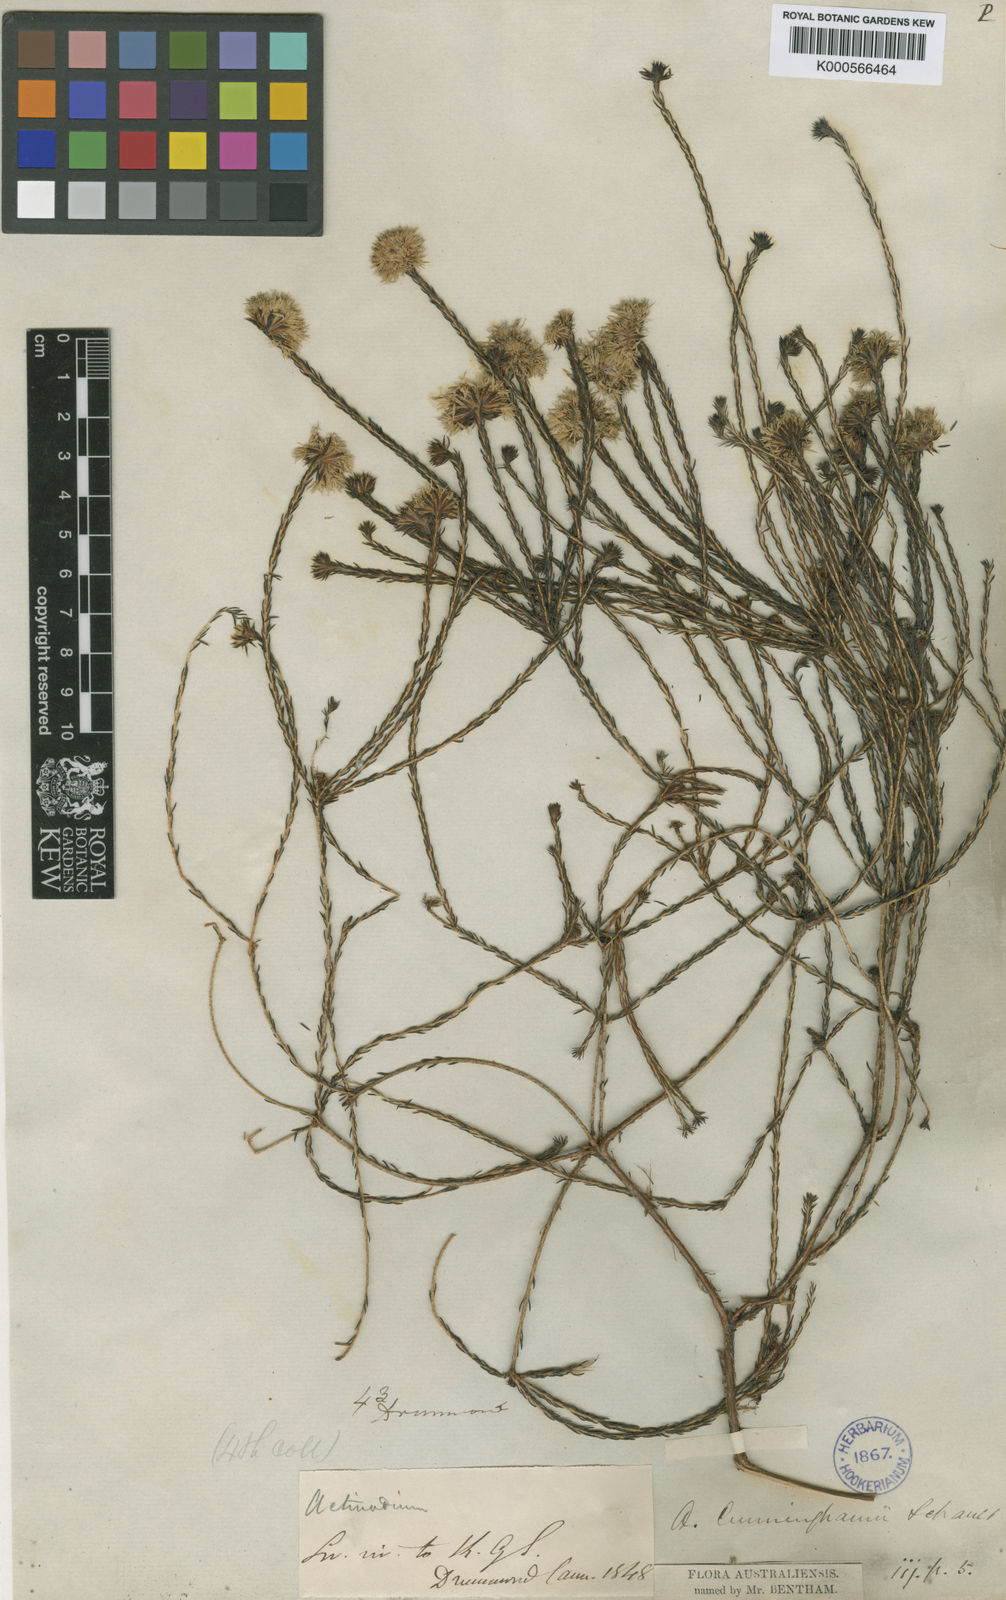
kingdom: Plantae
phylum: Tracheophyta
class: Magnoliopsida
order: Myrtales
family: Myrtaceae
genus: Actinodium
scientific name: Actinodium cunninghamii
